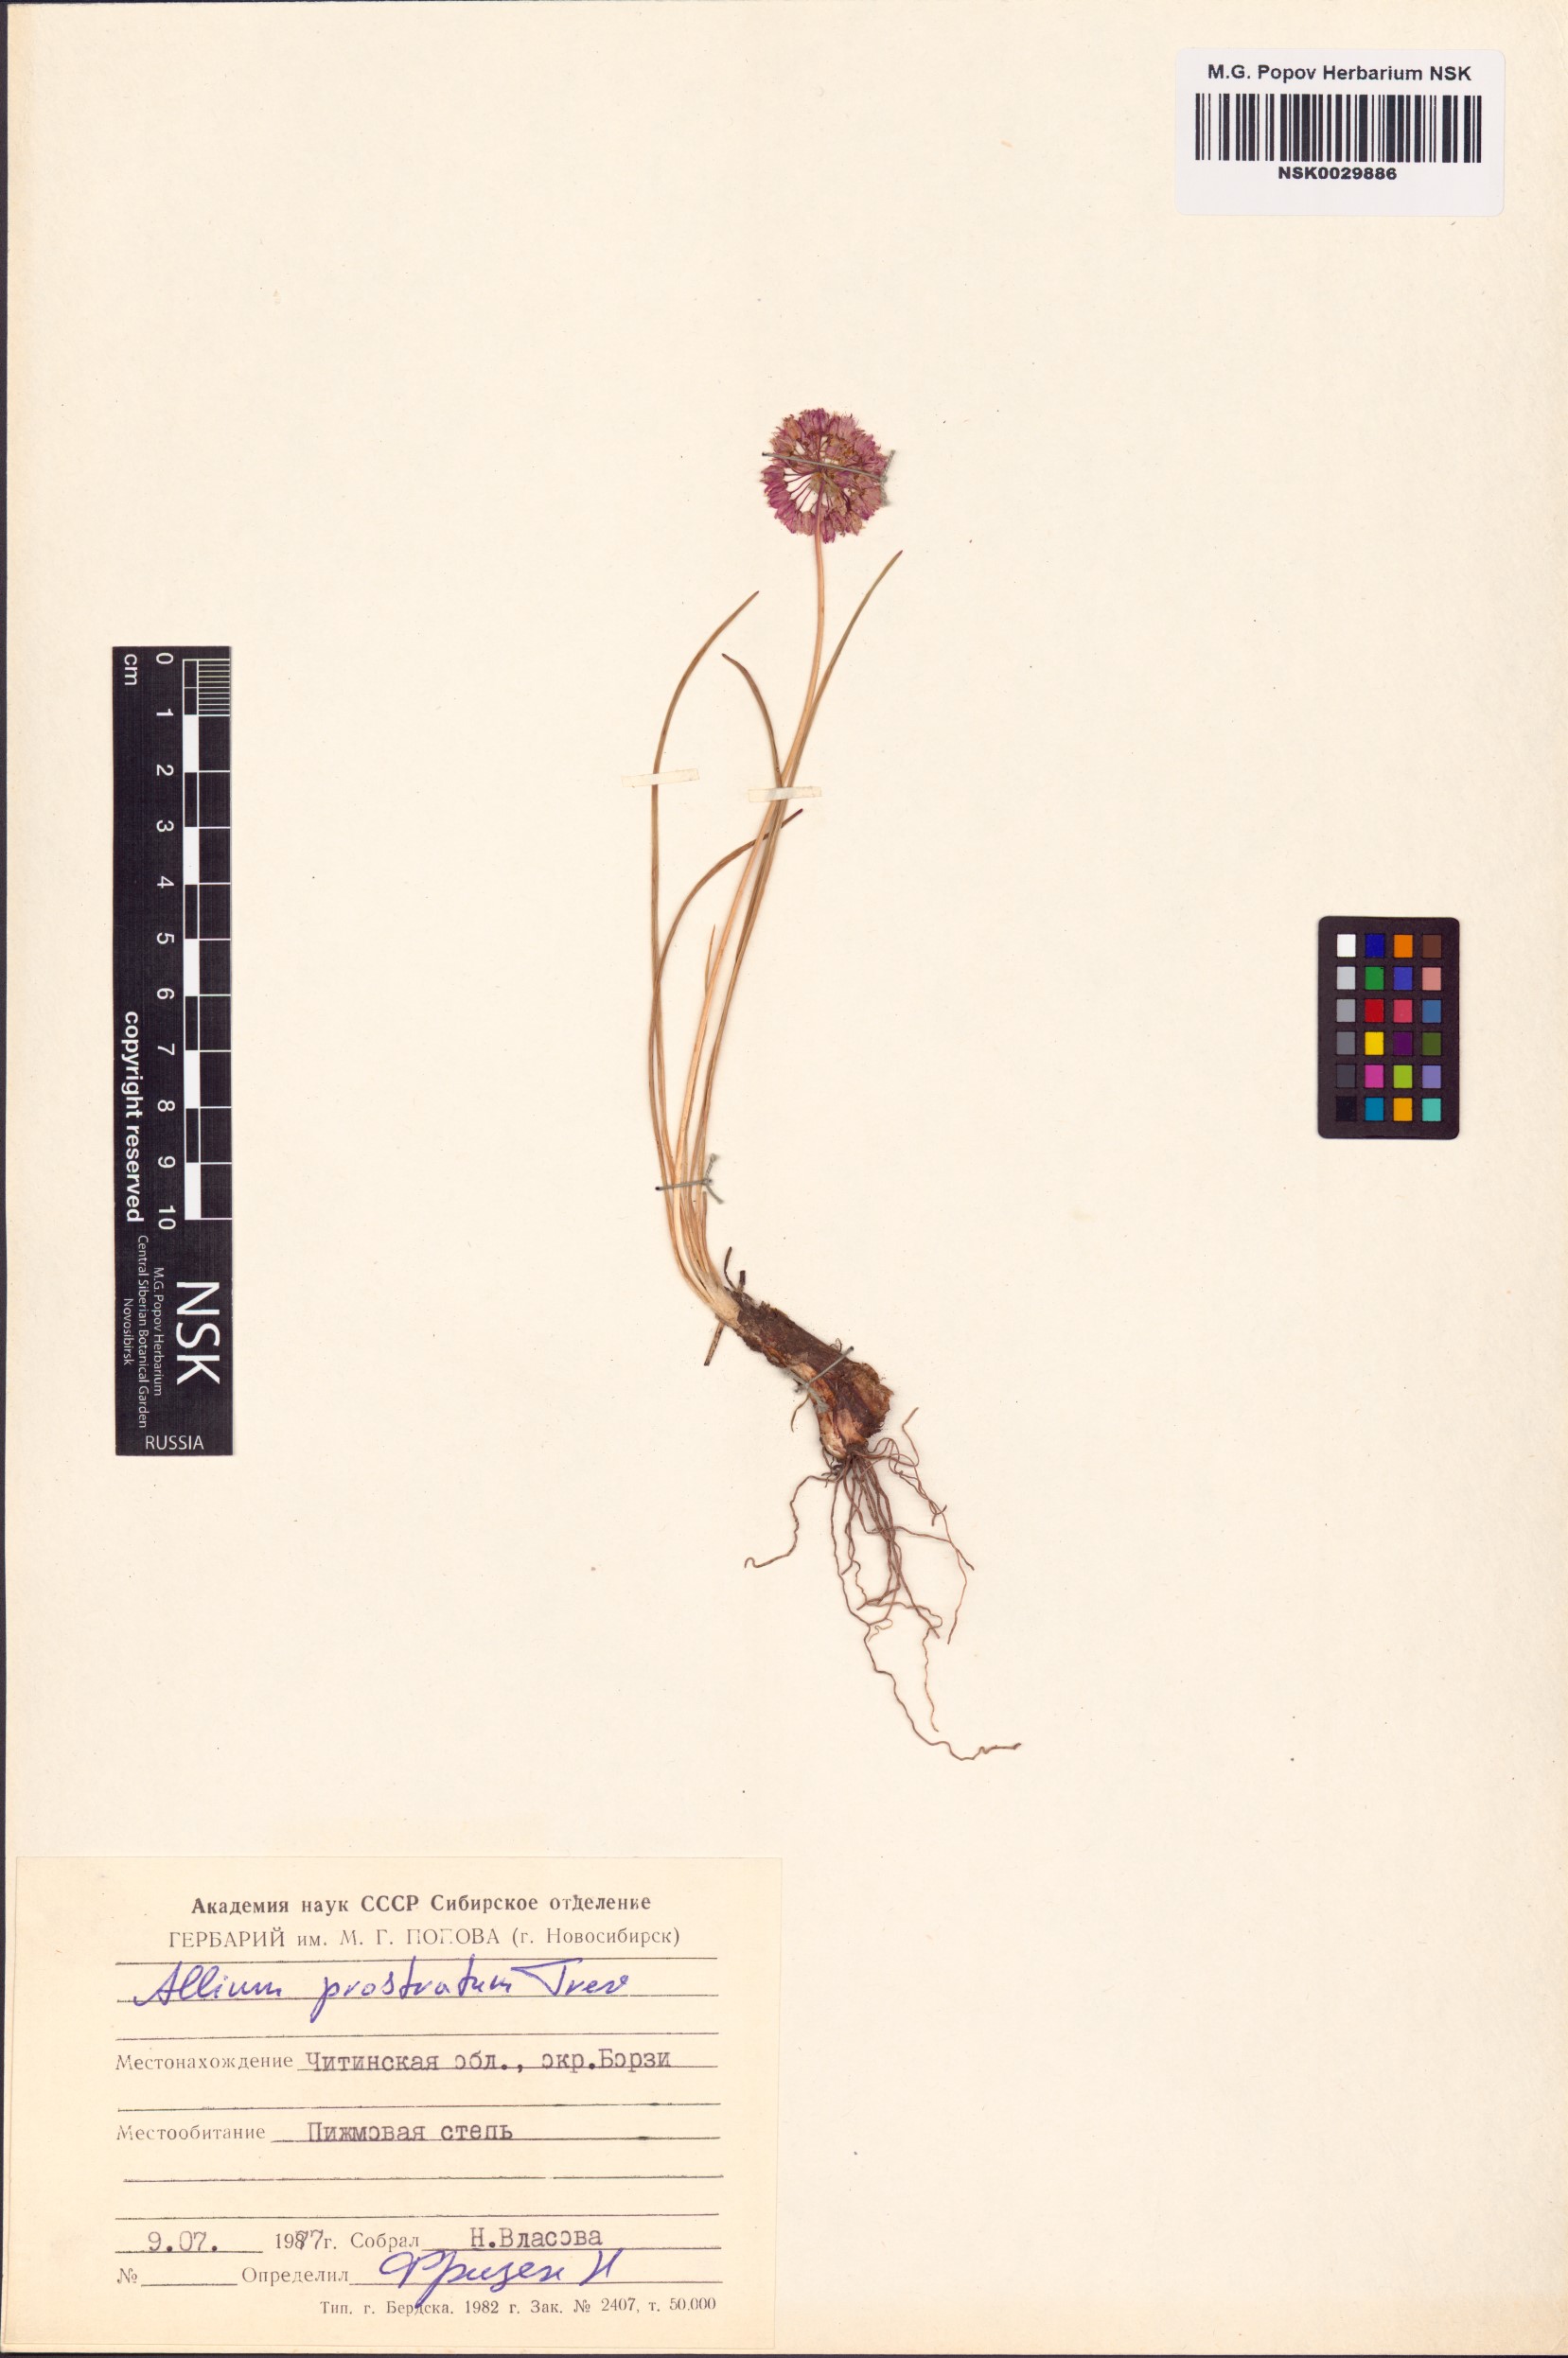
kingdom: Plantae
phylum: Tracheophyta
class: Liliopsida
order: Asparagales
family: Amaryllidaceae
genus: Allium
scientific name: Allium prostratum
